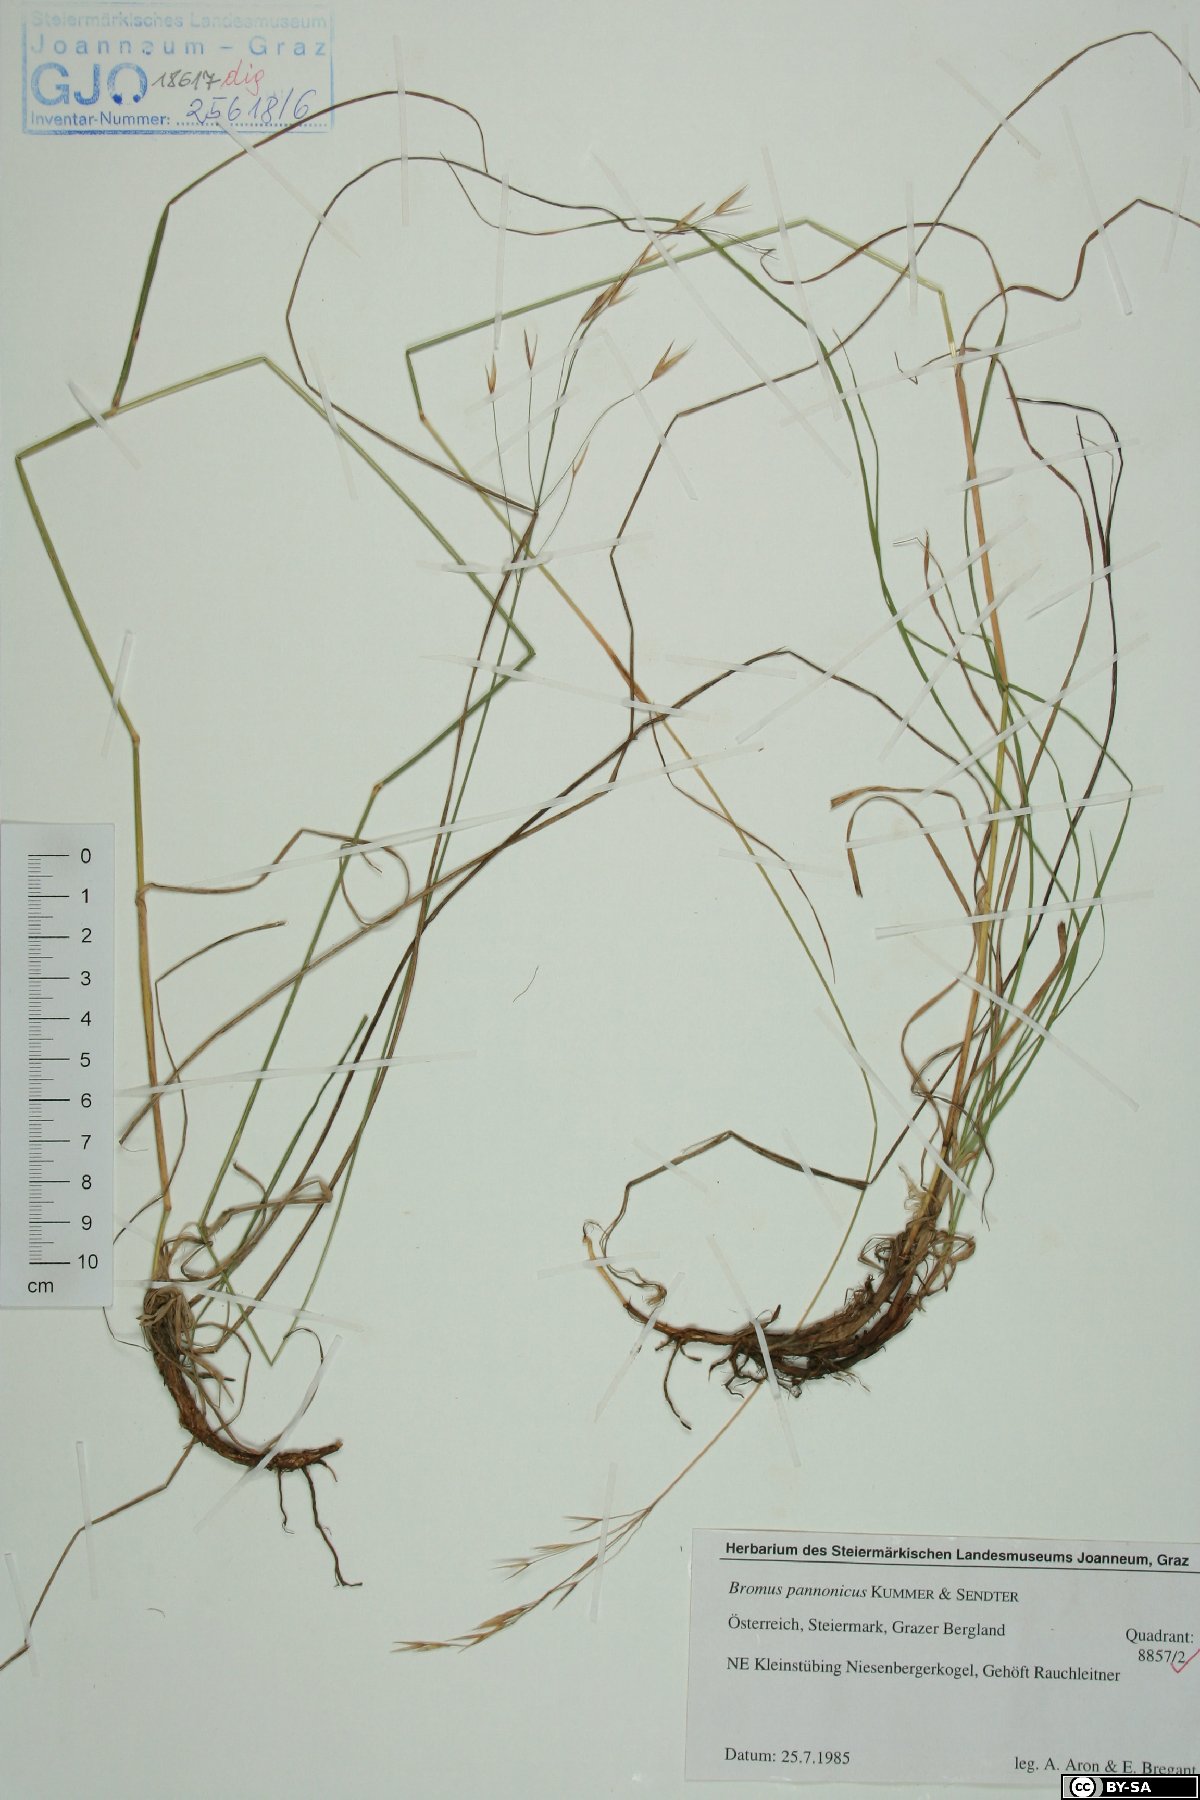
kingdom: Plantae
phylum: Tracheophyta
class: Liliopsida
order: Poales
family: Poaceae
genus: Bromus
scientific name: Bromus pannonicus
